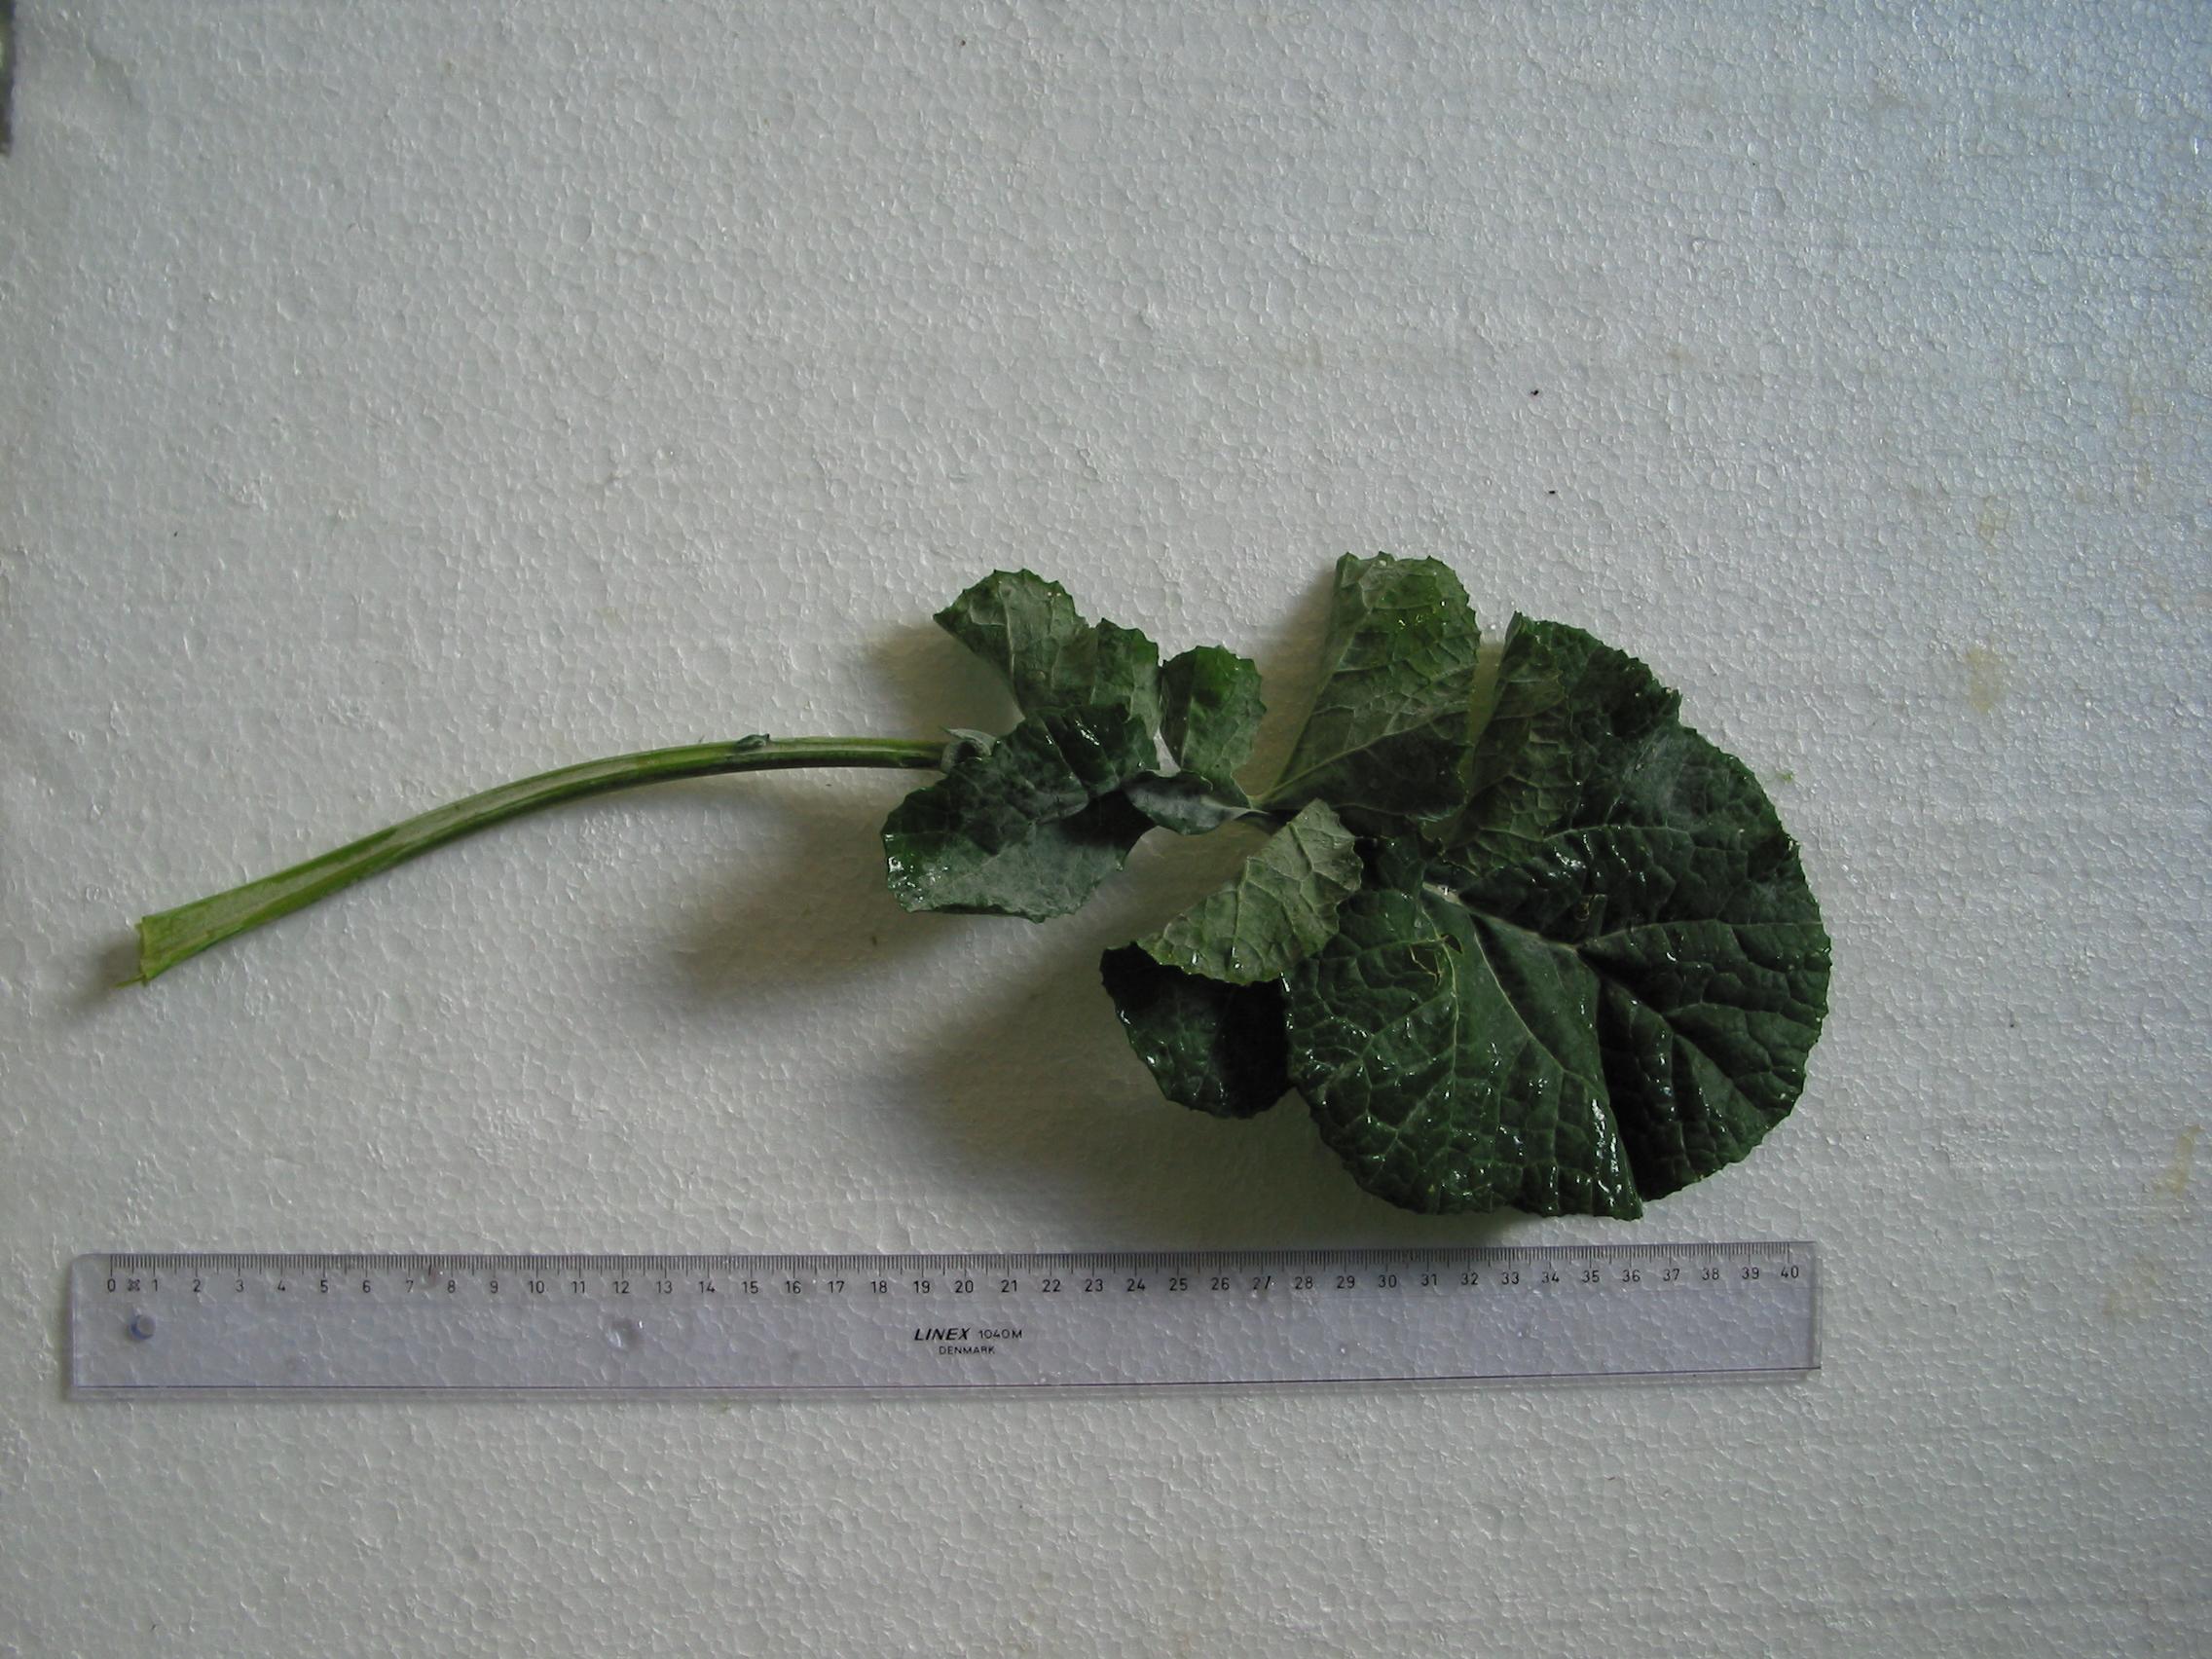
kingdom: Plantae
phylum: Tracheophyta
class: Magnoliopsida
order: Brassicales
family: Brassicaceae
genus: Brassica
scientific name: Brassica napus
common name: Rape
